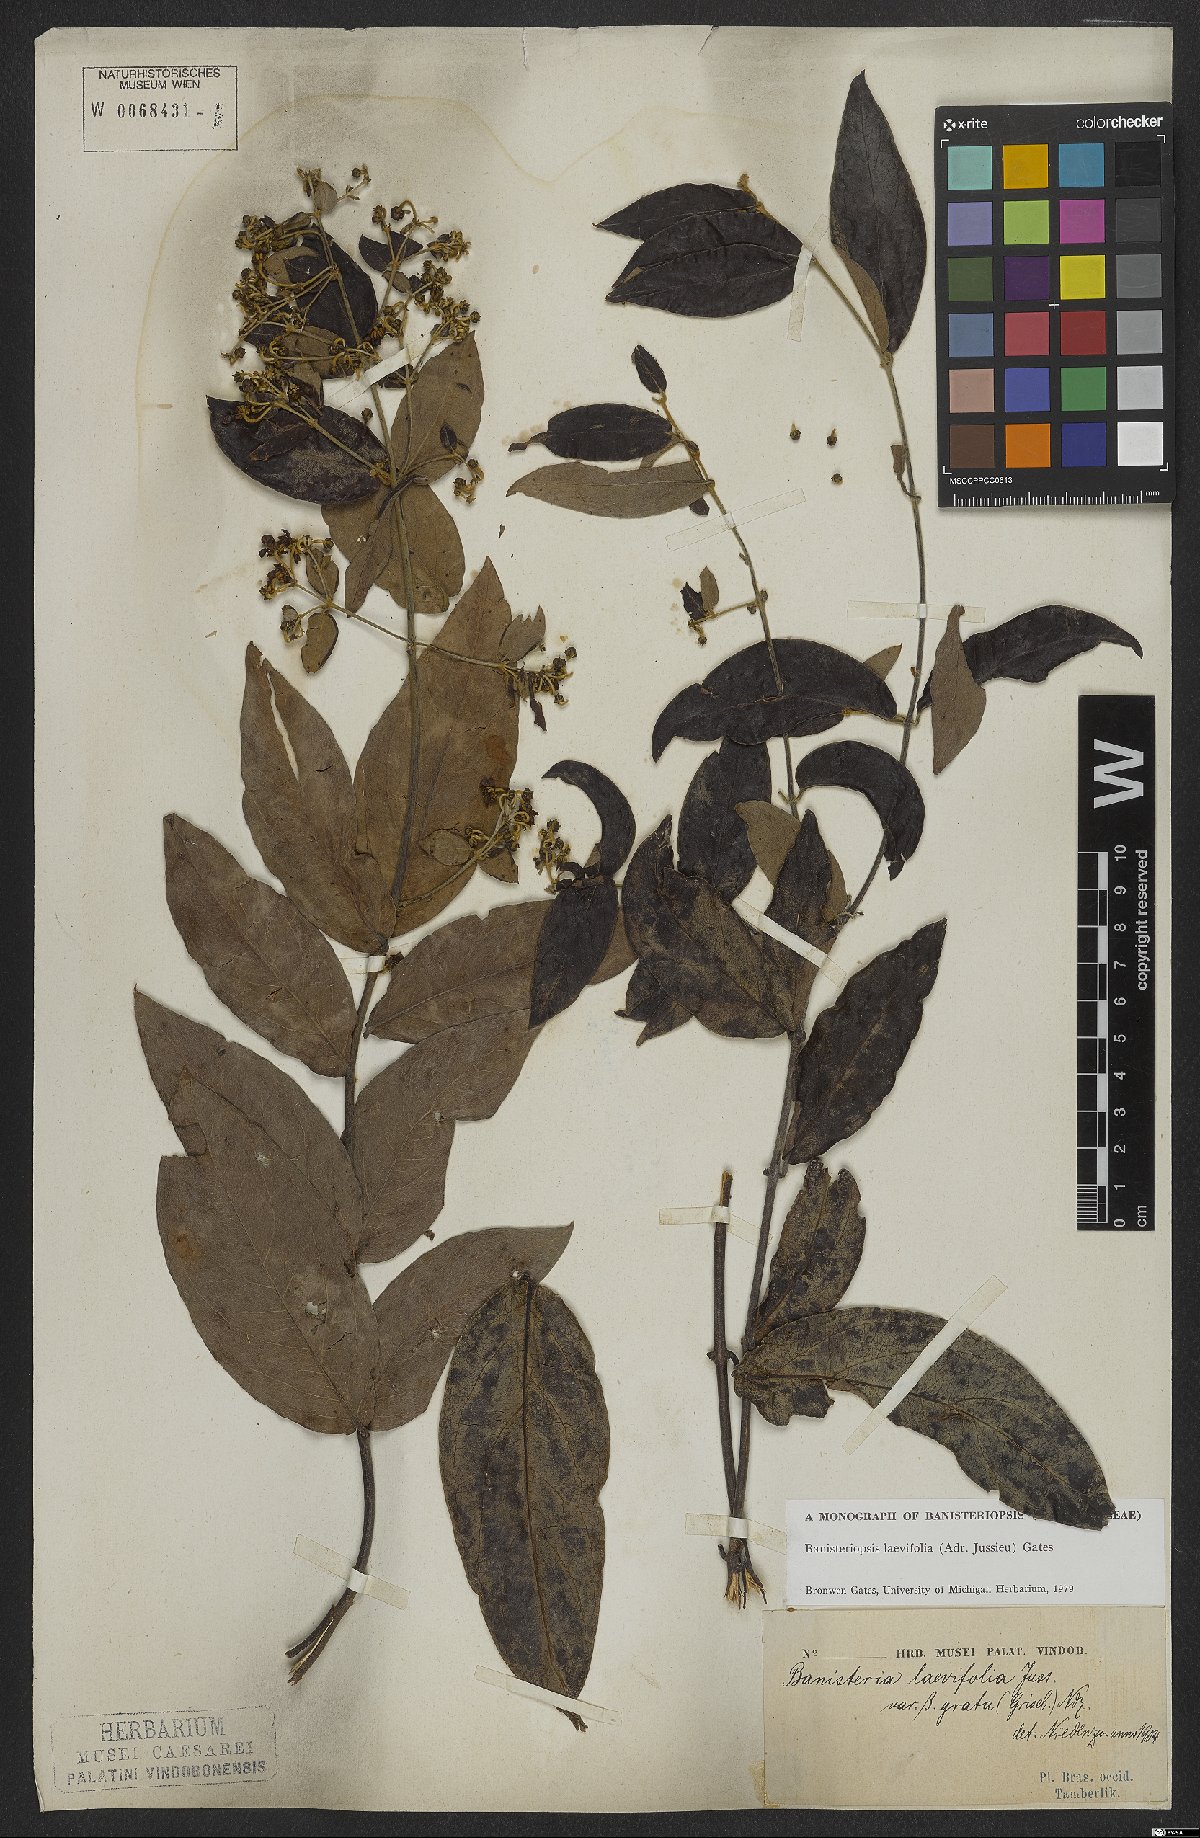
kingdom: Plantae
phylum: Tracheophyta
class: Magnoliopsida
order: Malpighiales
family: Malpighiaceae
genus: Banisteriopsis
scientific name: Banisteriopsis laevifolia
